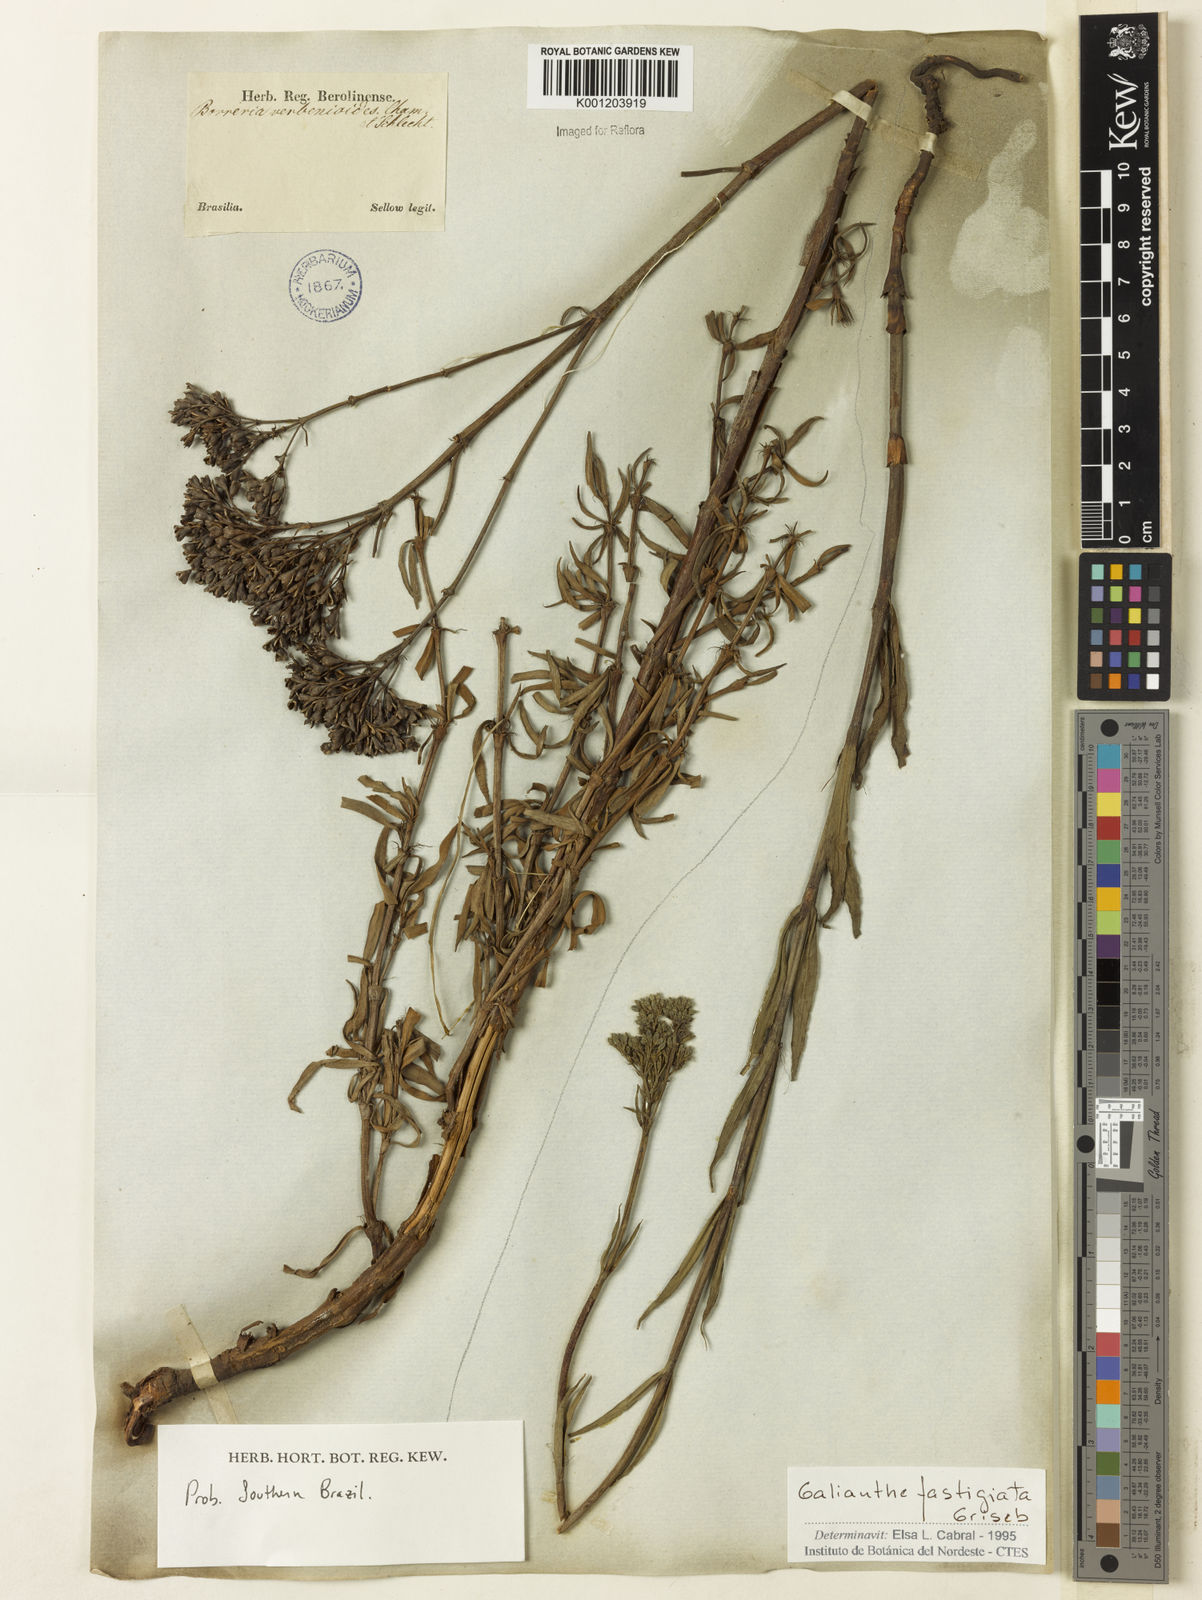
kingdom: Plantae
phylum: Tracheophyta
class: Magnoliopsida
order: Gentianales
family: Rubiaceae
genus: Galianthe
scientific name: Galianthe fastigiata
